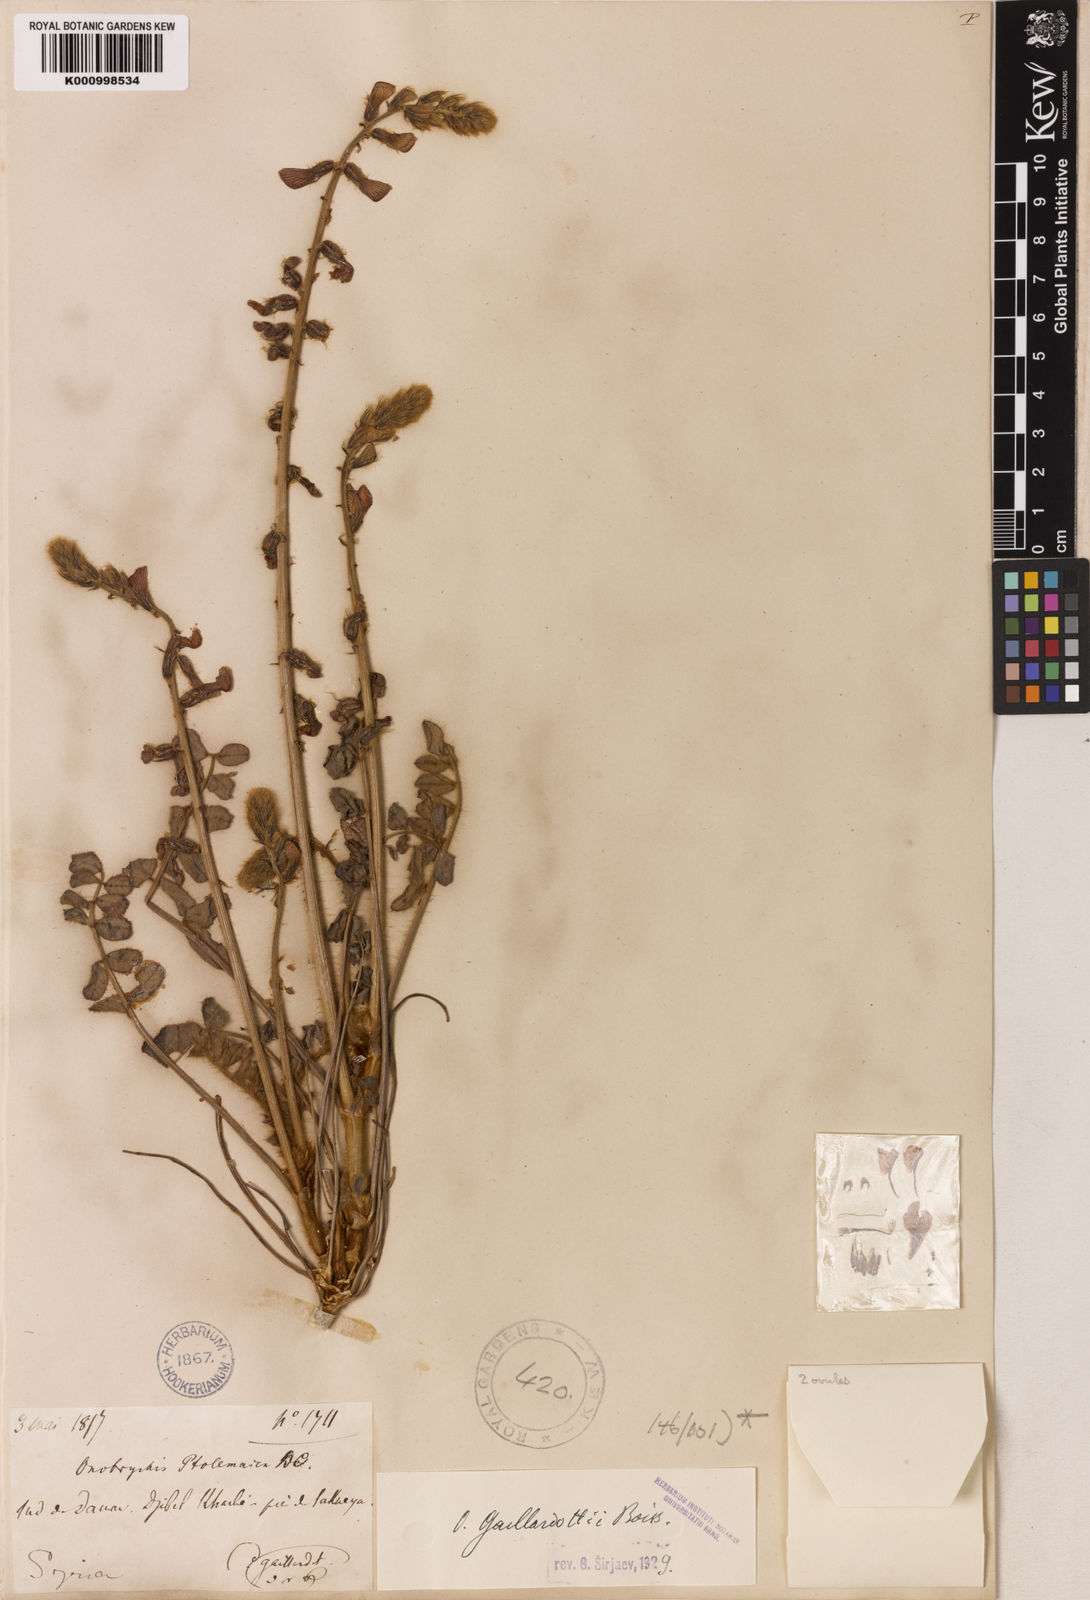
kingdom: Plantae
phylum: Tracheophyta
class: Magnoliopsida
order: Fabales
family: Fabaceae
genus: Onobrychis
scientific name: Onobrychis ptolemaica
